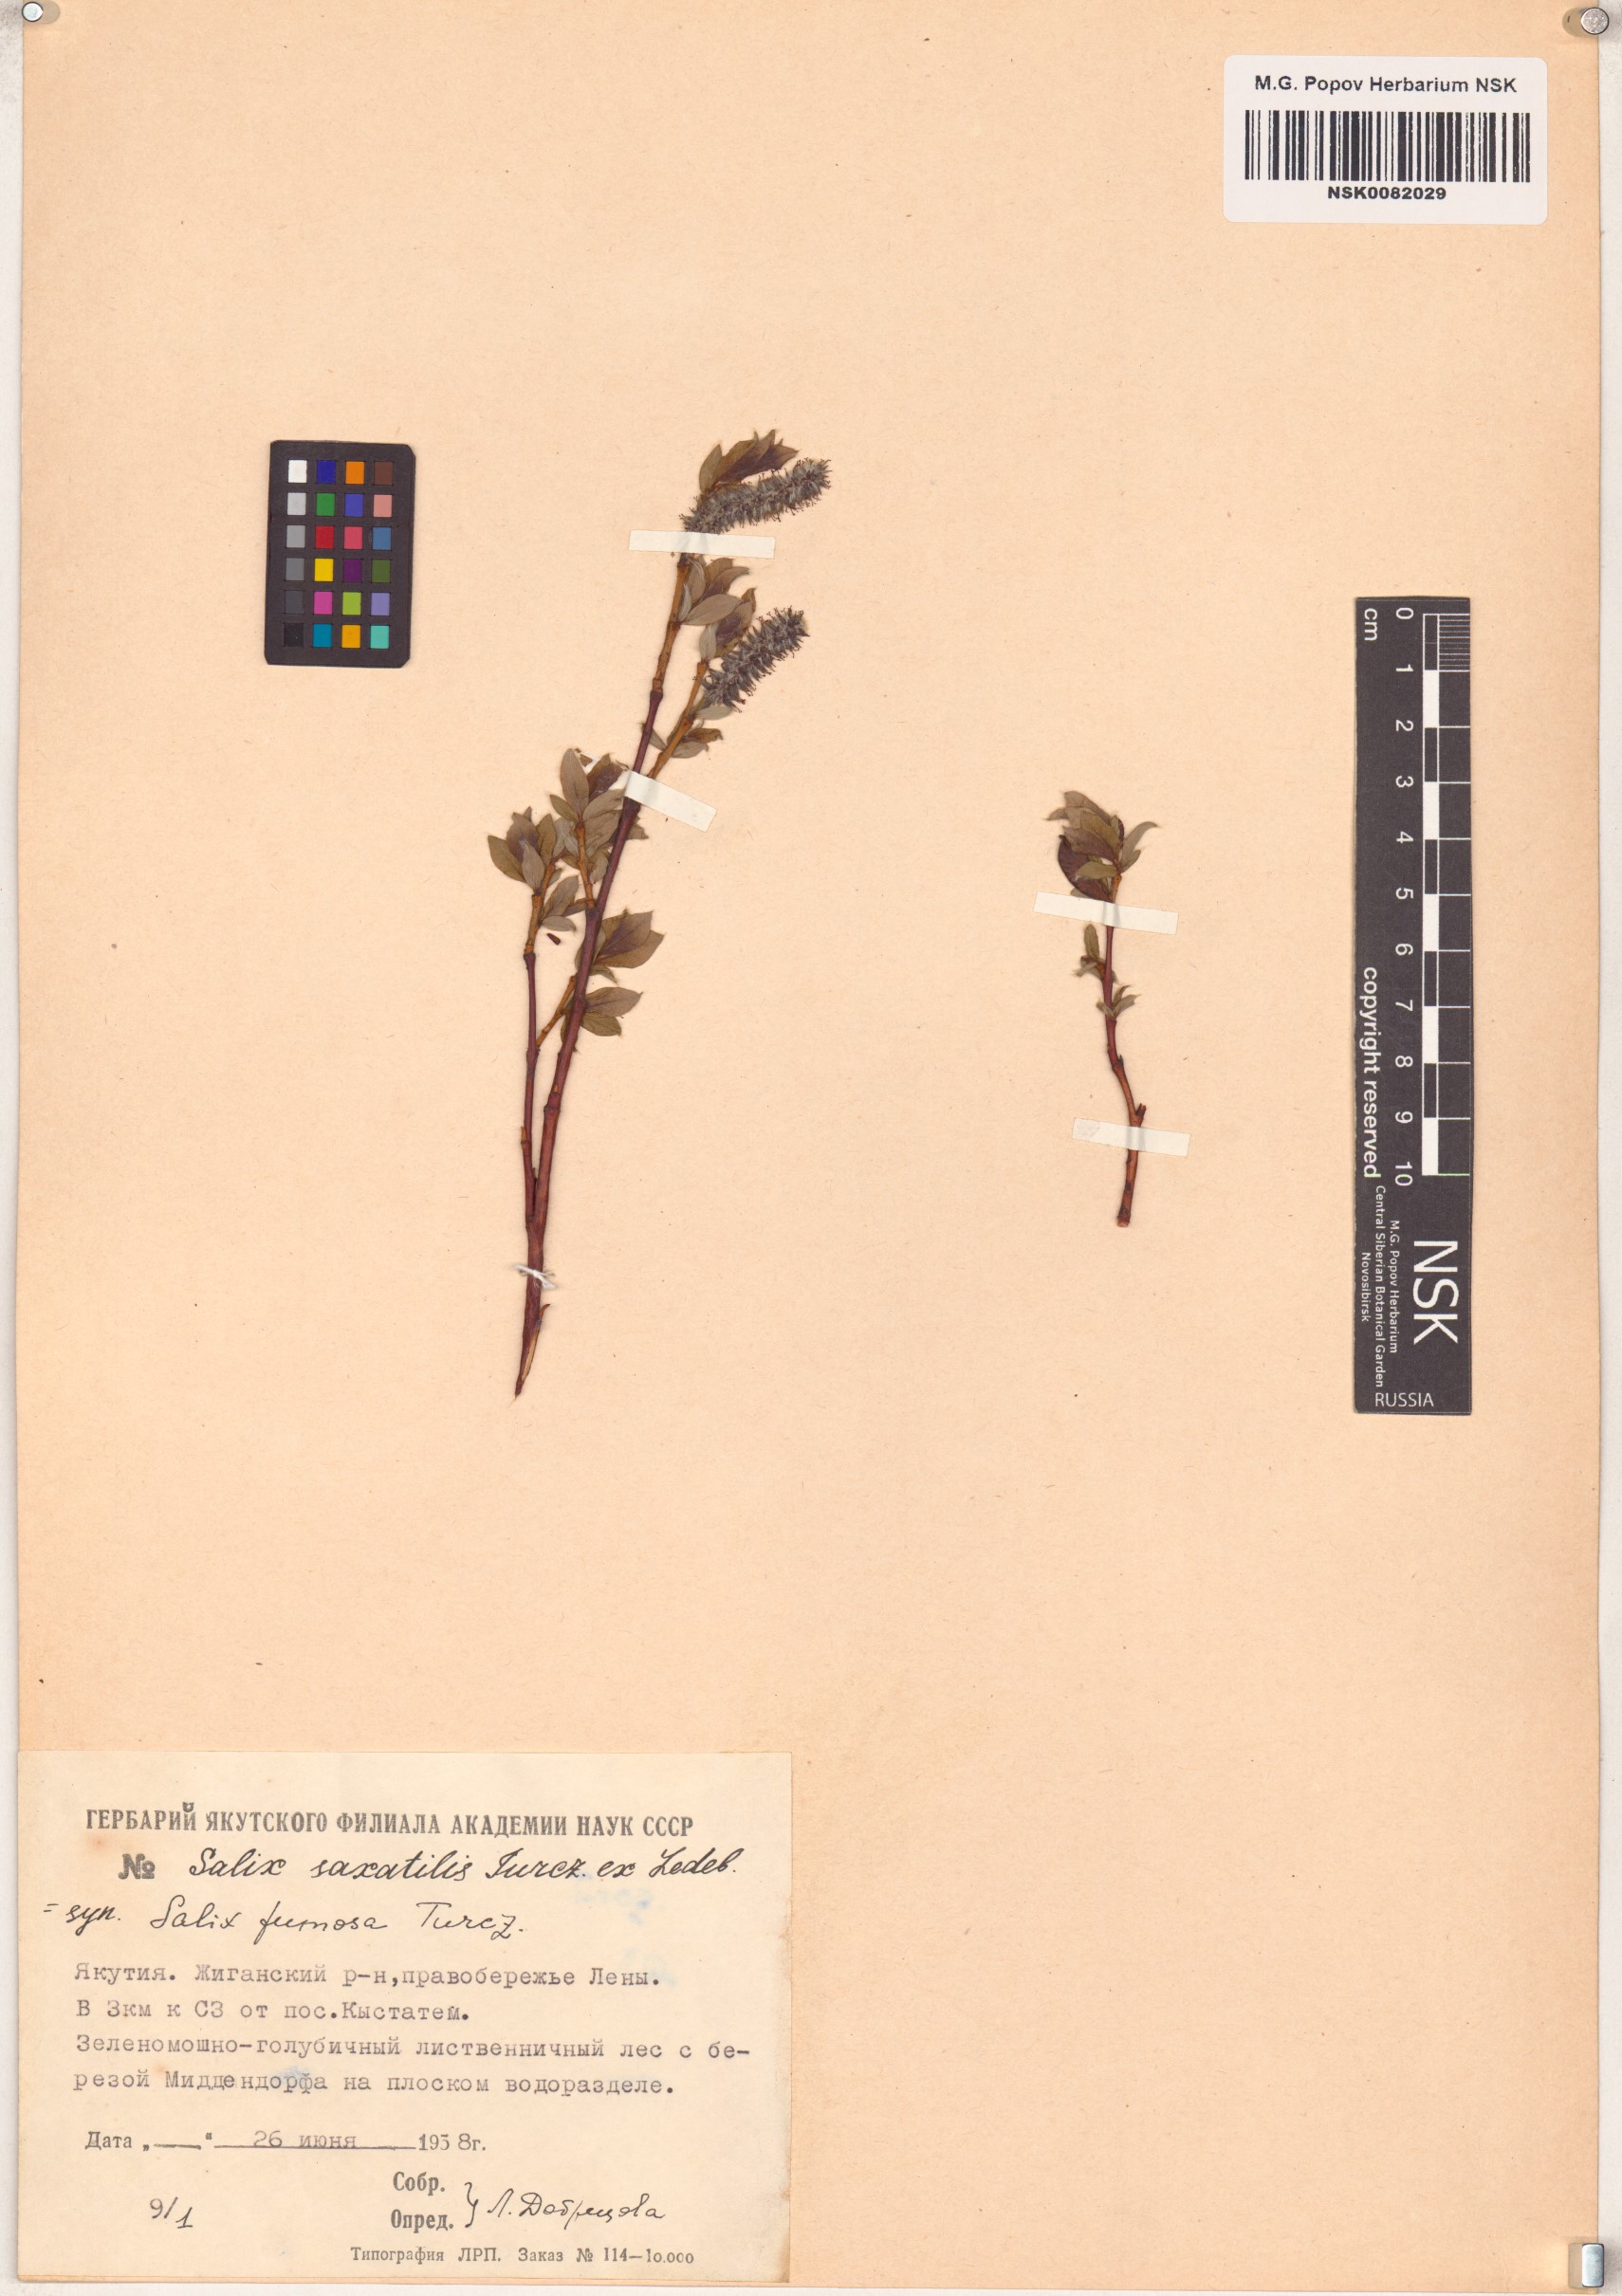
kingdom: Plantae
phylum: Tracheophyta
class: Magnoliopsida
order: Malpighiales
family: Salicaceae
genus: Salix
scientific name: Salix saxatilis
